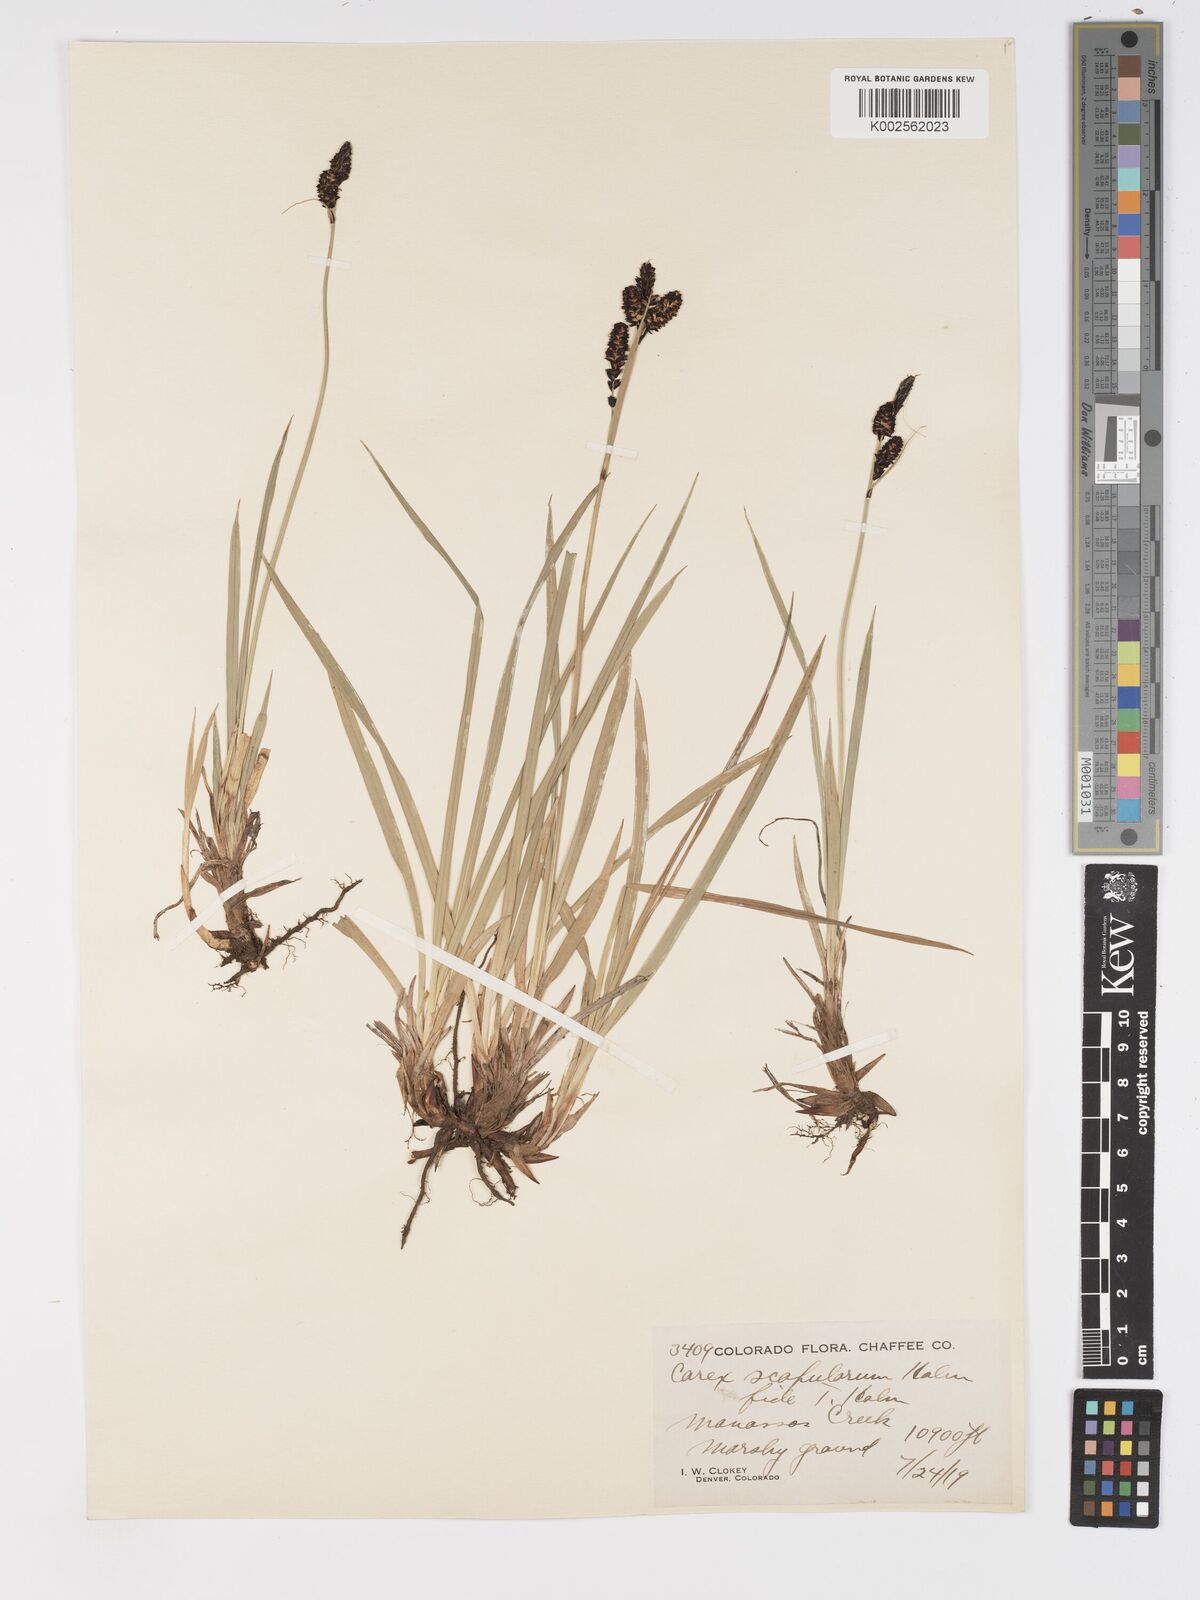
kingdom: Plantae
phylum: Tracheophyta
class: Liliopsida
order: Poales
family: Cyperaceae
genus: Carex
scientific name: Carex scopulorum
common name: Holm's rocky mountain sedge
